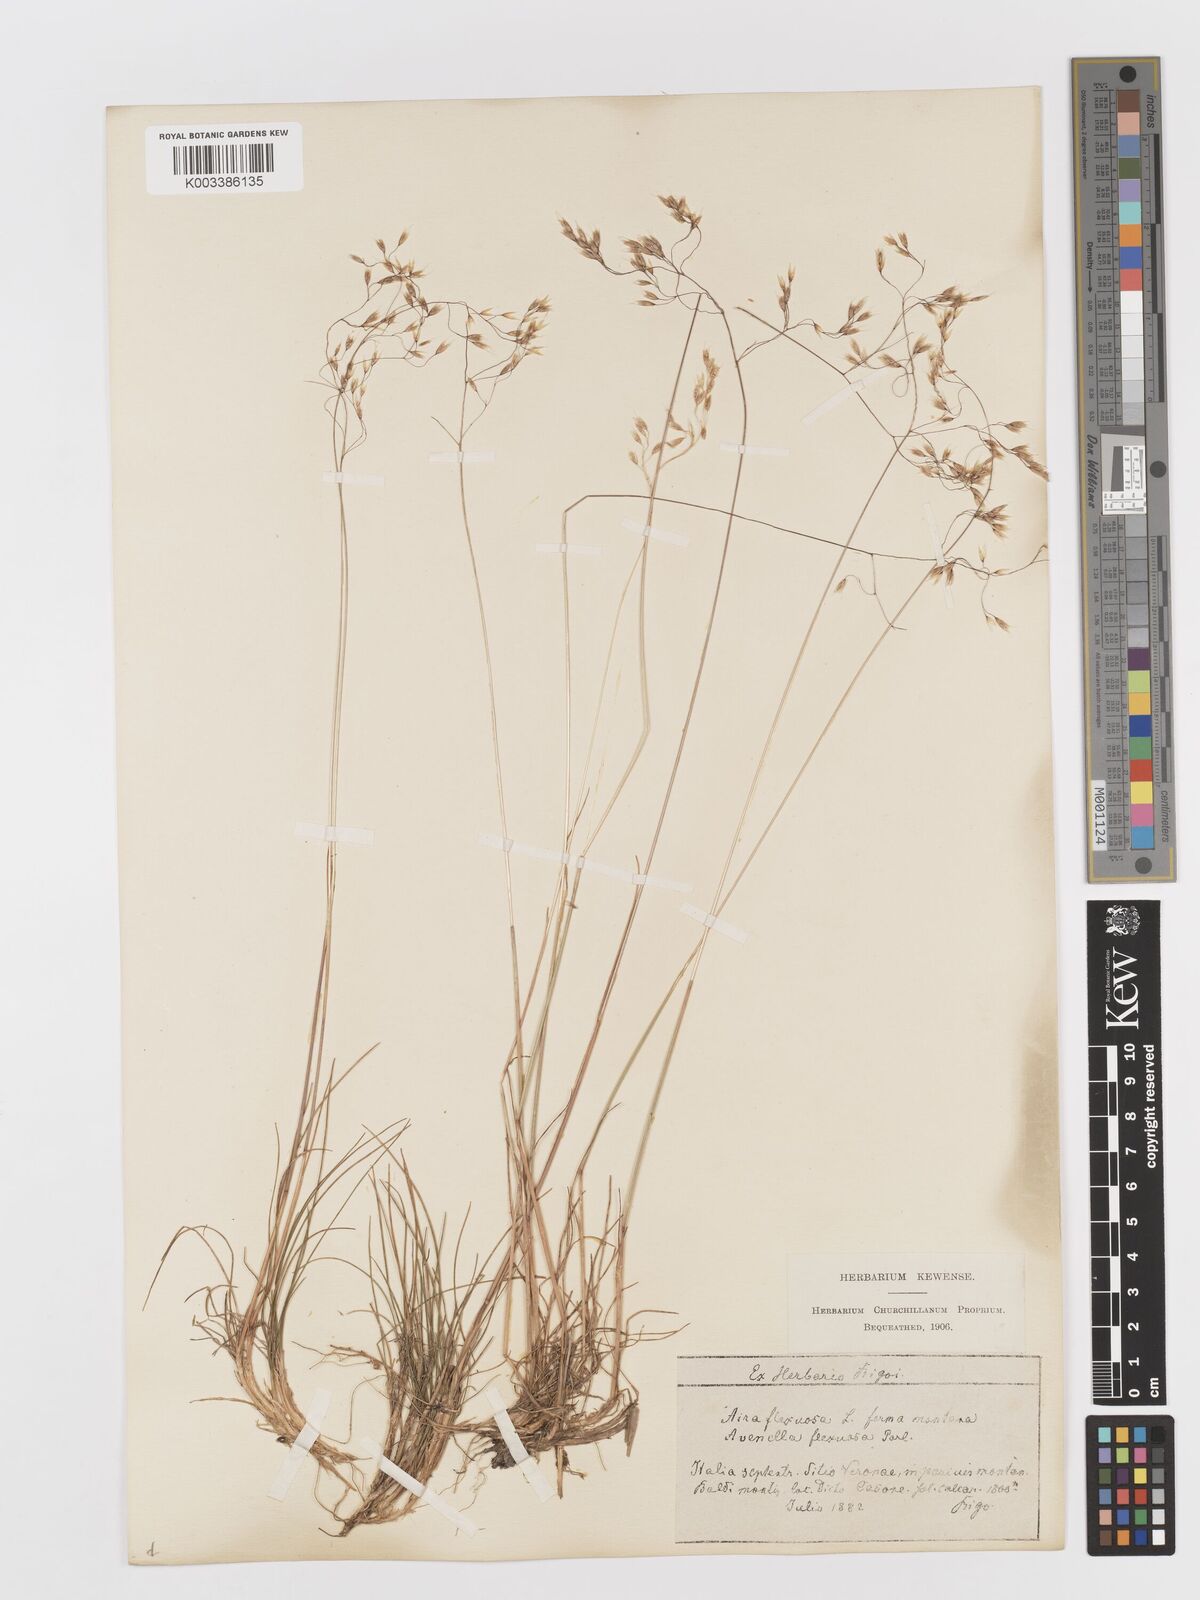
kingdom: Plantae
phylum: Tracheophyta
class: Liliopsida
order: Poales
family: Poaceae
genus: Avenella
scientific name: Avenella flexuosa
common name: Wavy hairgrass
